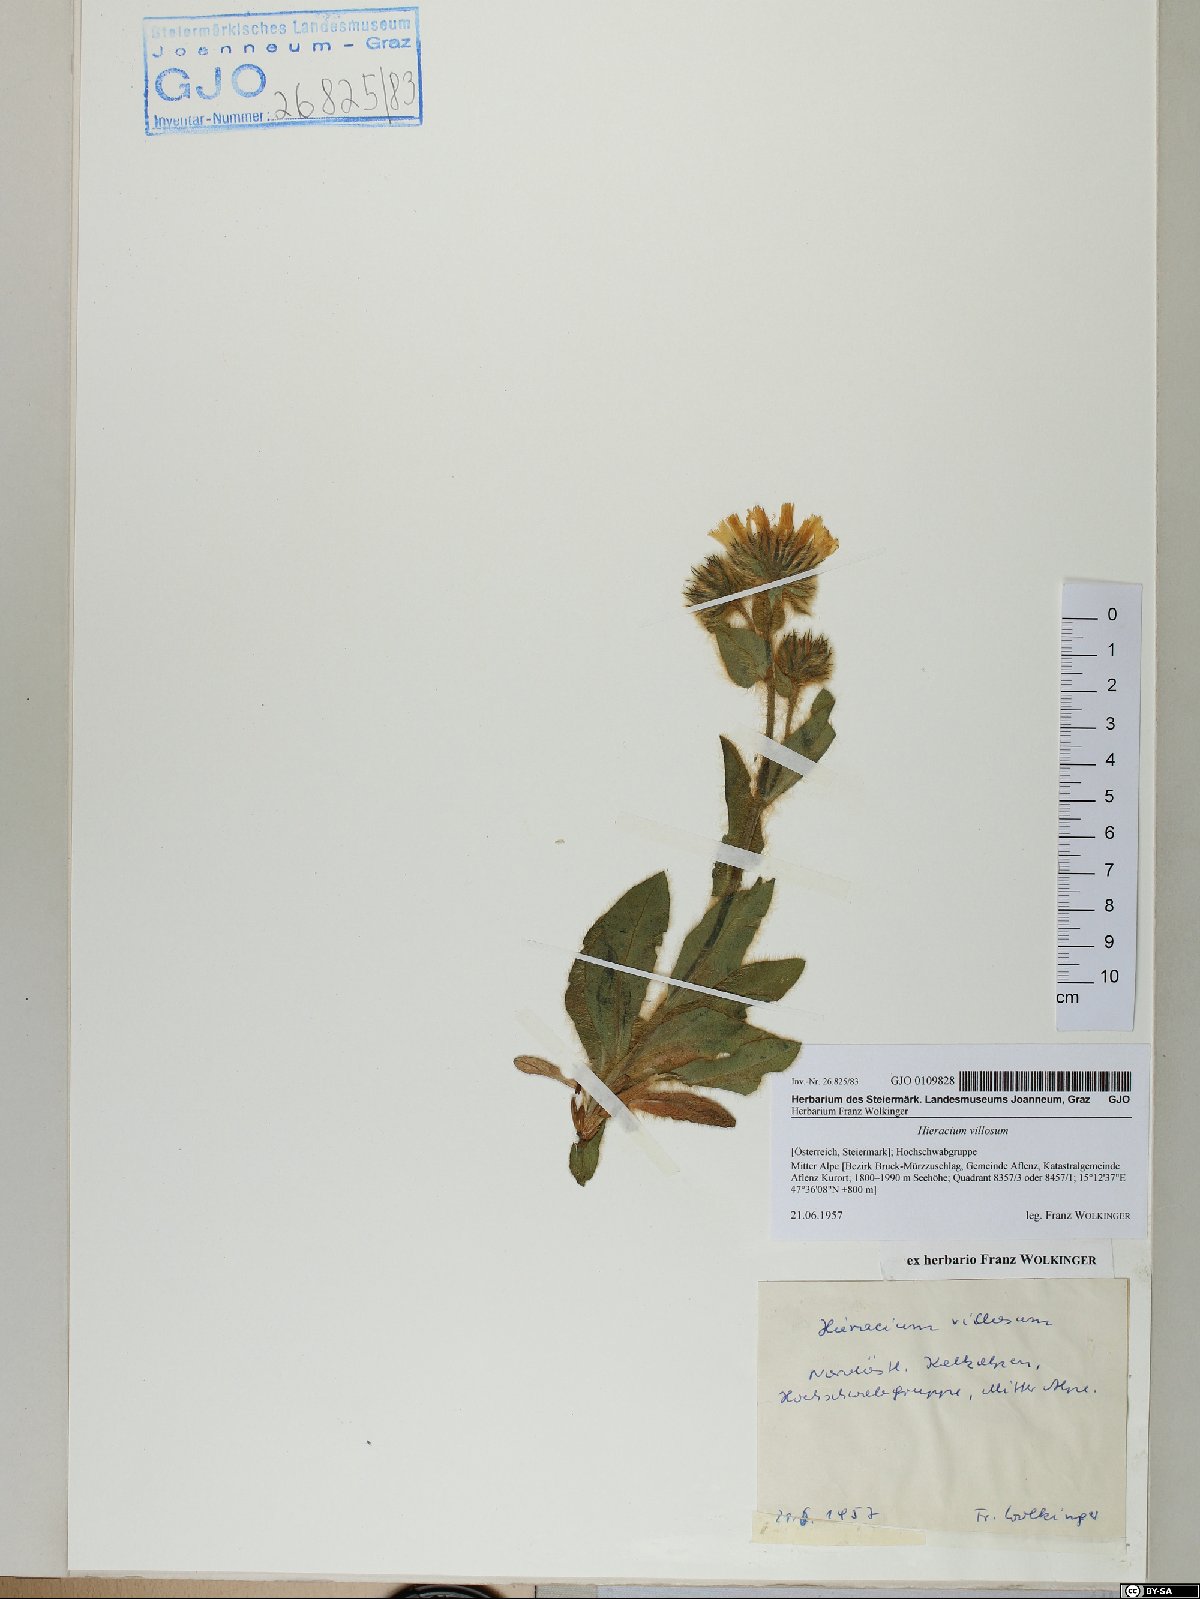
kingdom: Plantae
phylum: Tracheophyta
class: Magnoliopsida
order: Asterales
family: Asteraceae
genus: Hieracium
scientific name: Hieracium villosum
